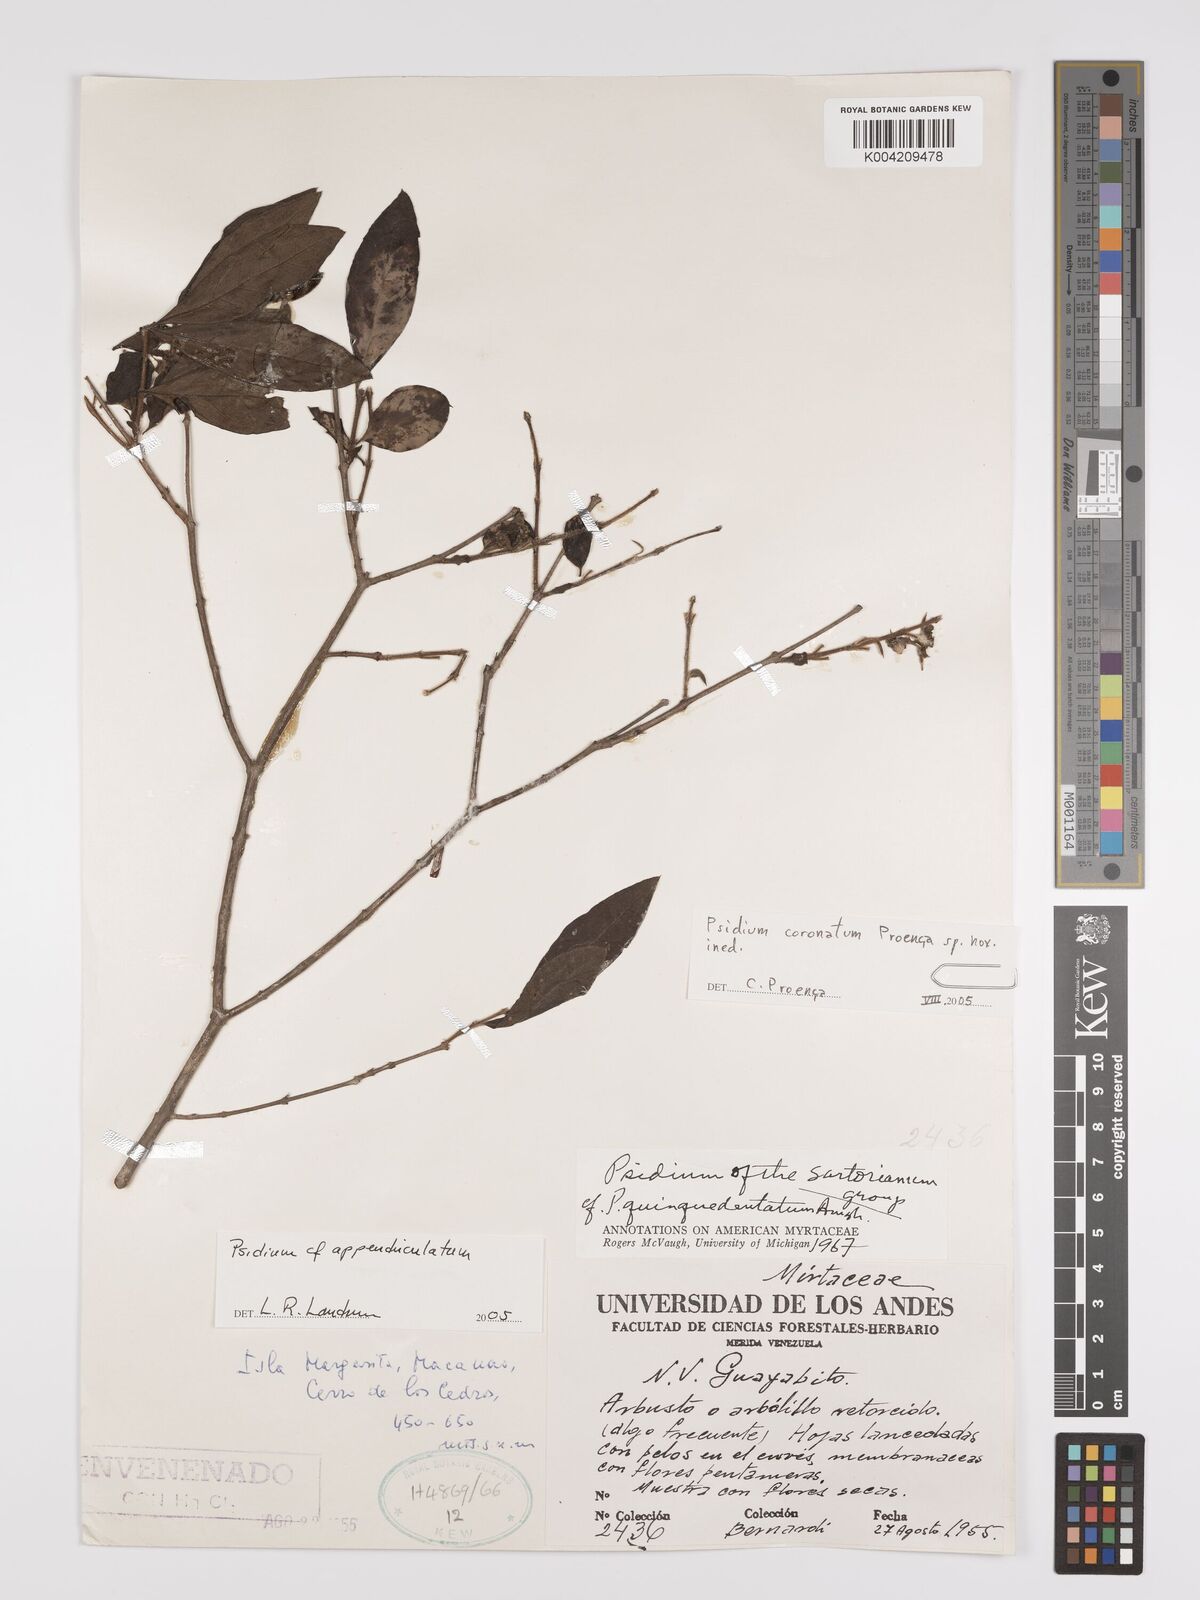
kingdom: Plantae
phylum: Tracheophyta
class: Magnoliopsida
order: Myrtales
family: Myrtaceae
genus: Psidium
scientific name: Psidium appendiculatum
